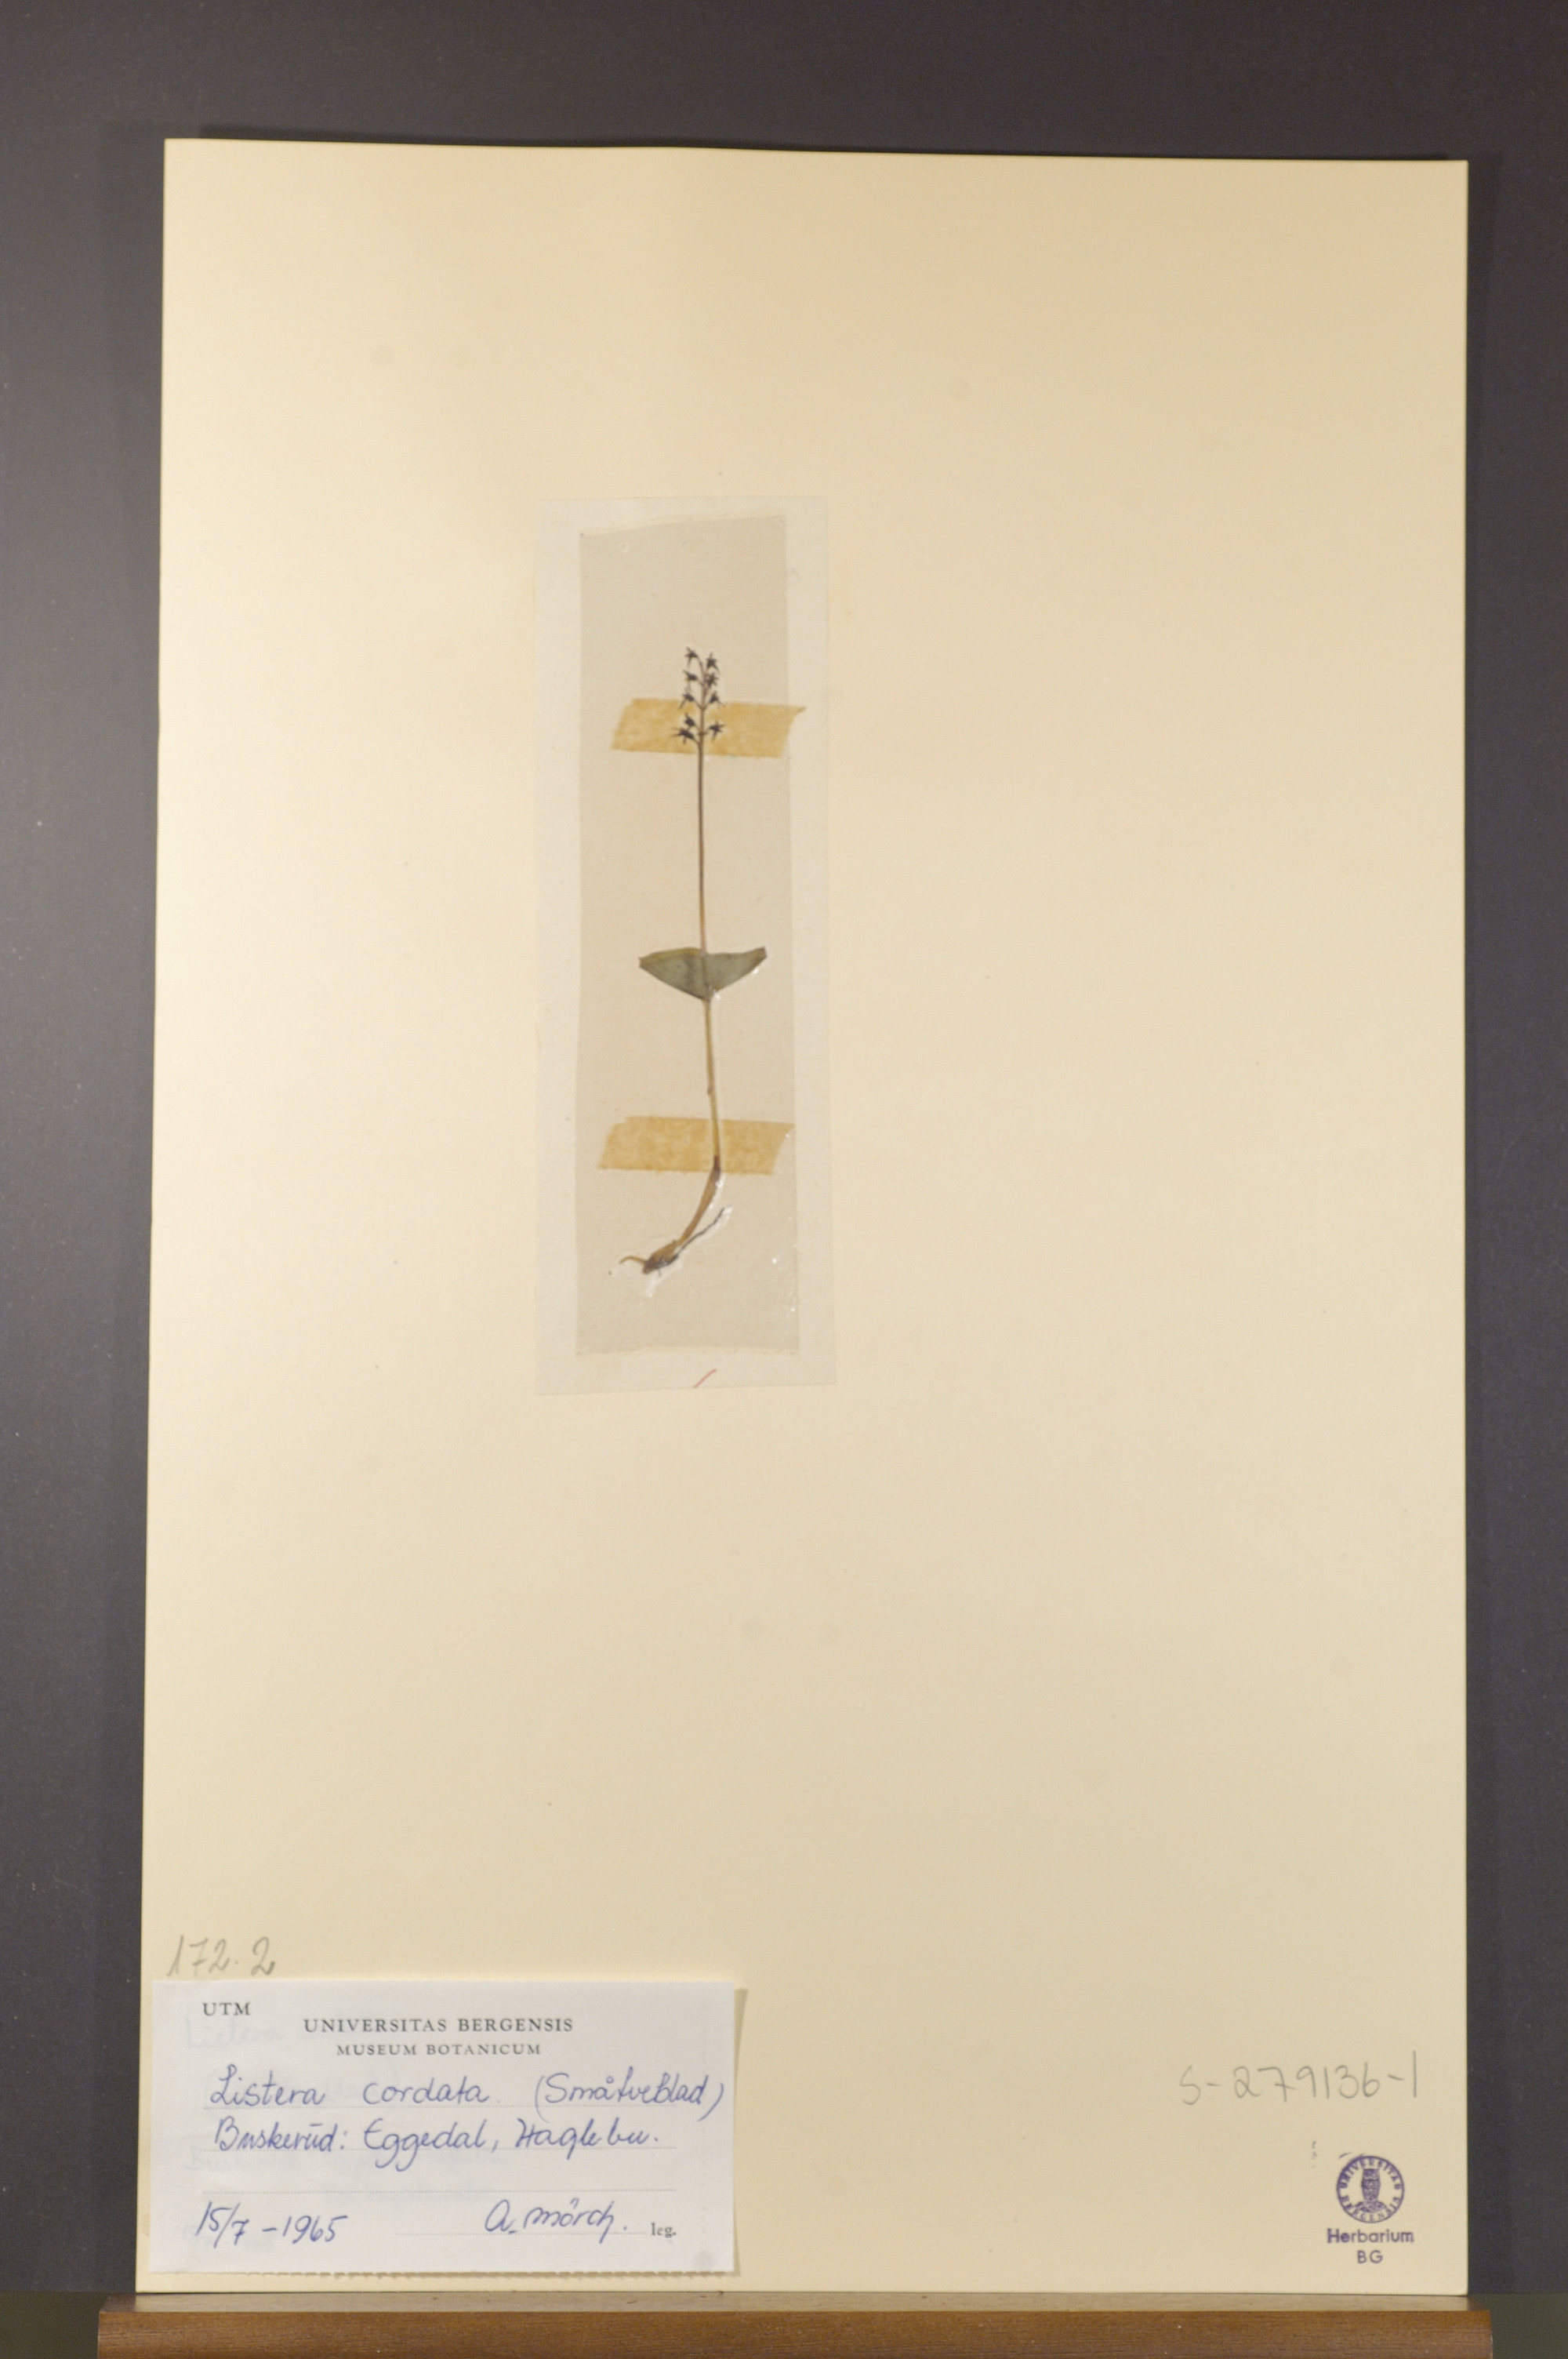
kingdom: Plantae
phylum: Tracheophyta
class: Liliopsida
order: Asparagales
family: Orchidaceae
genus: Neottia
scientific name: Neottia cordata
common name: Lesser twayblade
